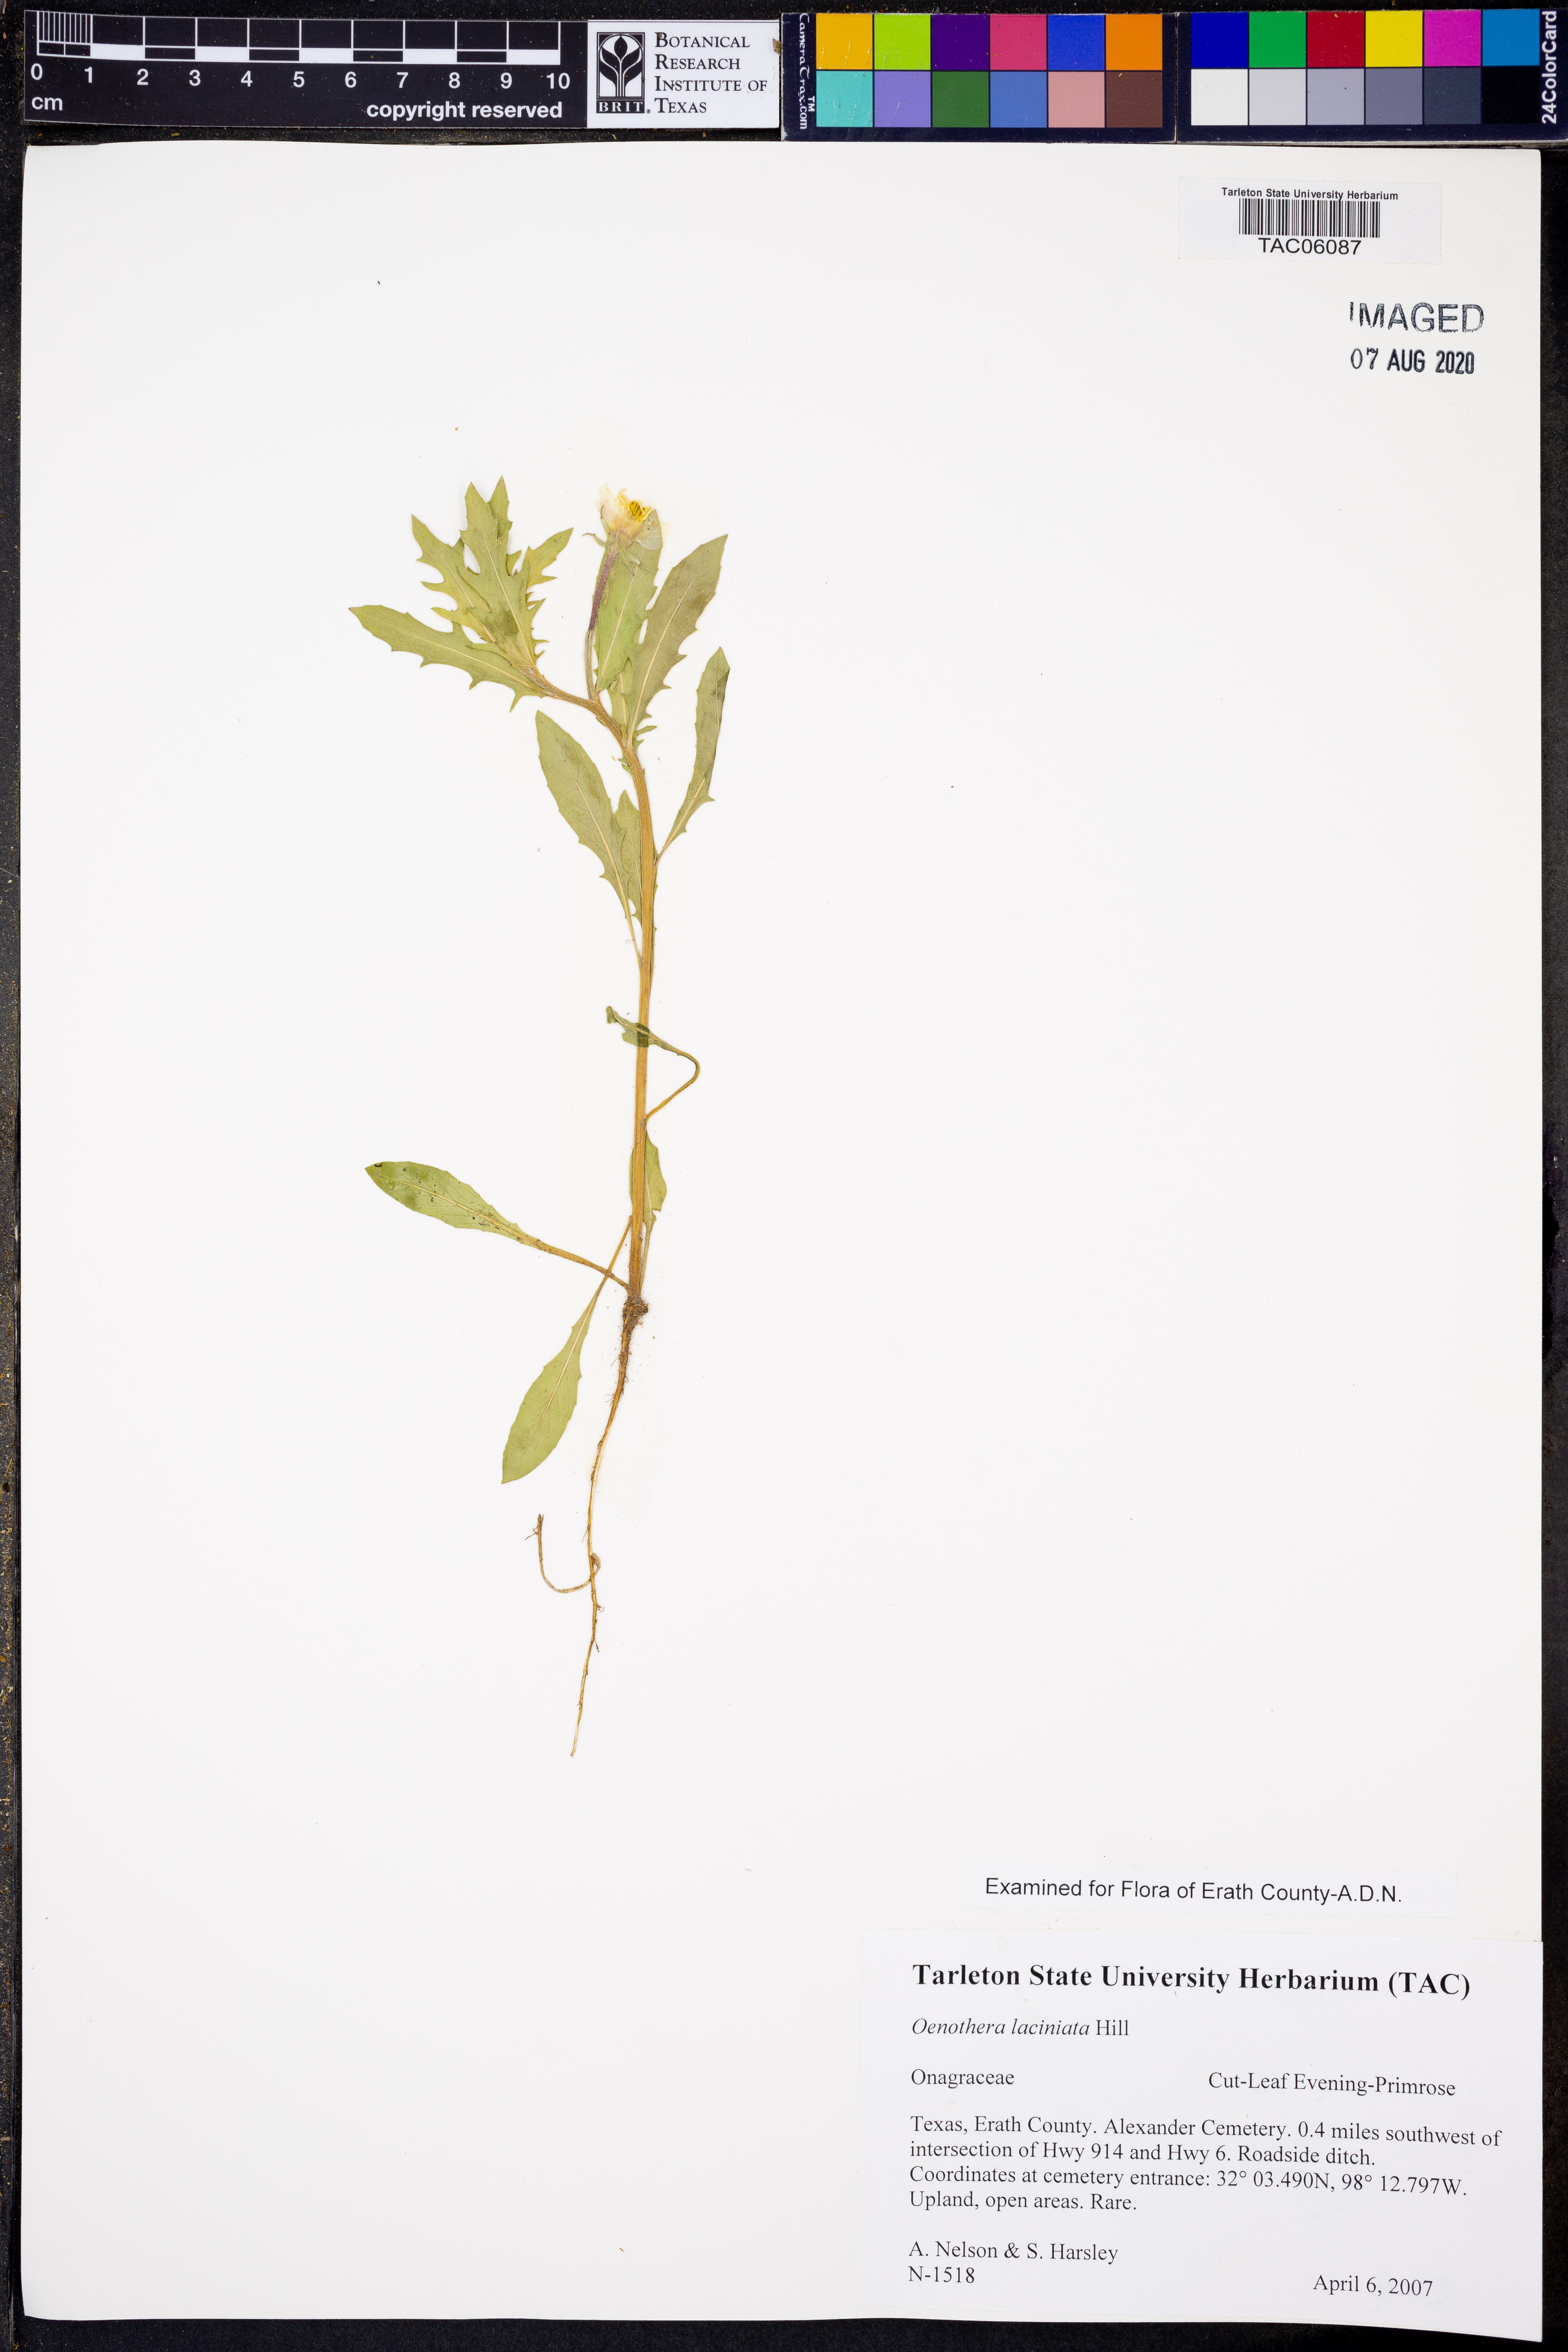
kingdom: Plantae
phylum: Tracheophyta
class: Magnoliopsida
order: Myrtales
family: Onagraceae
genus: Oenothera
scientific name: Oenothera laciniata
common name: Cut-leaved evening-primrose
